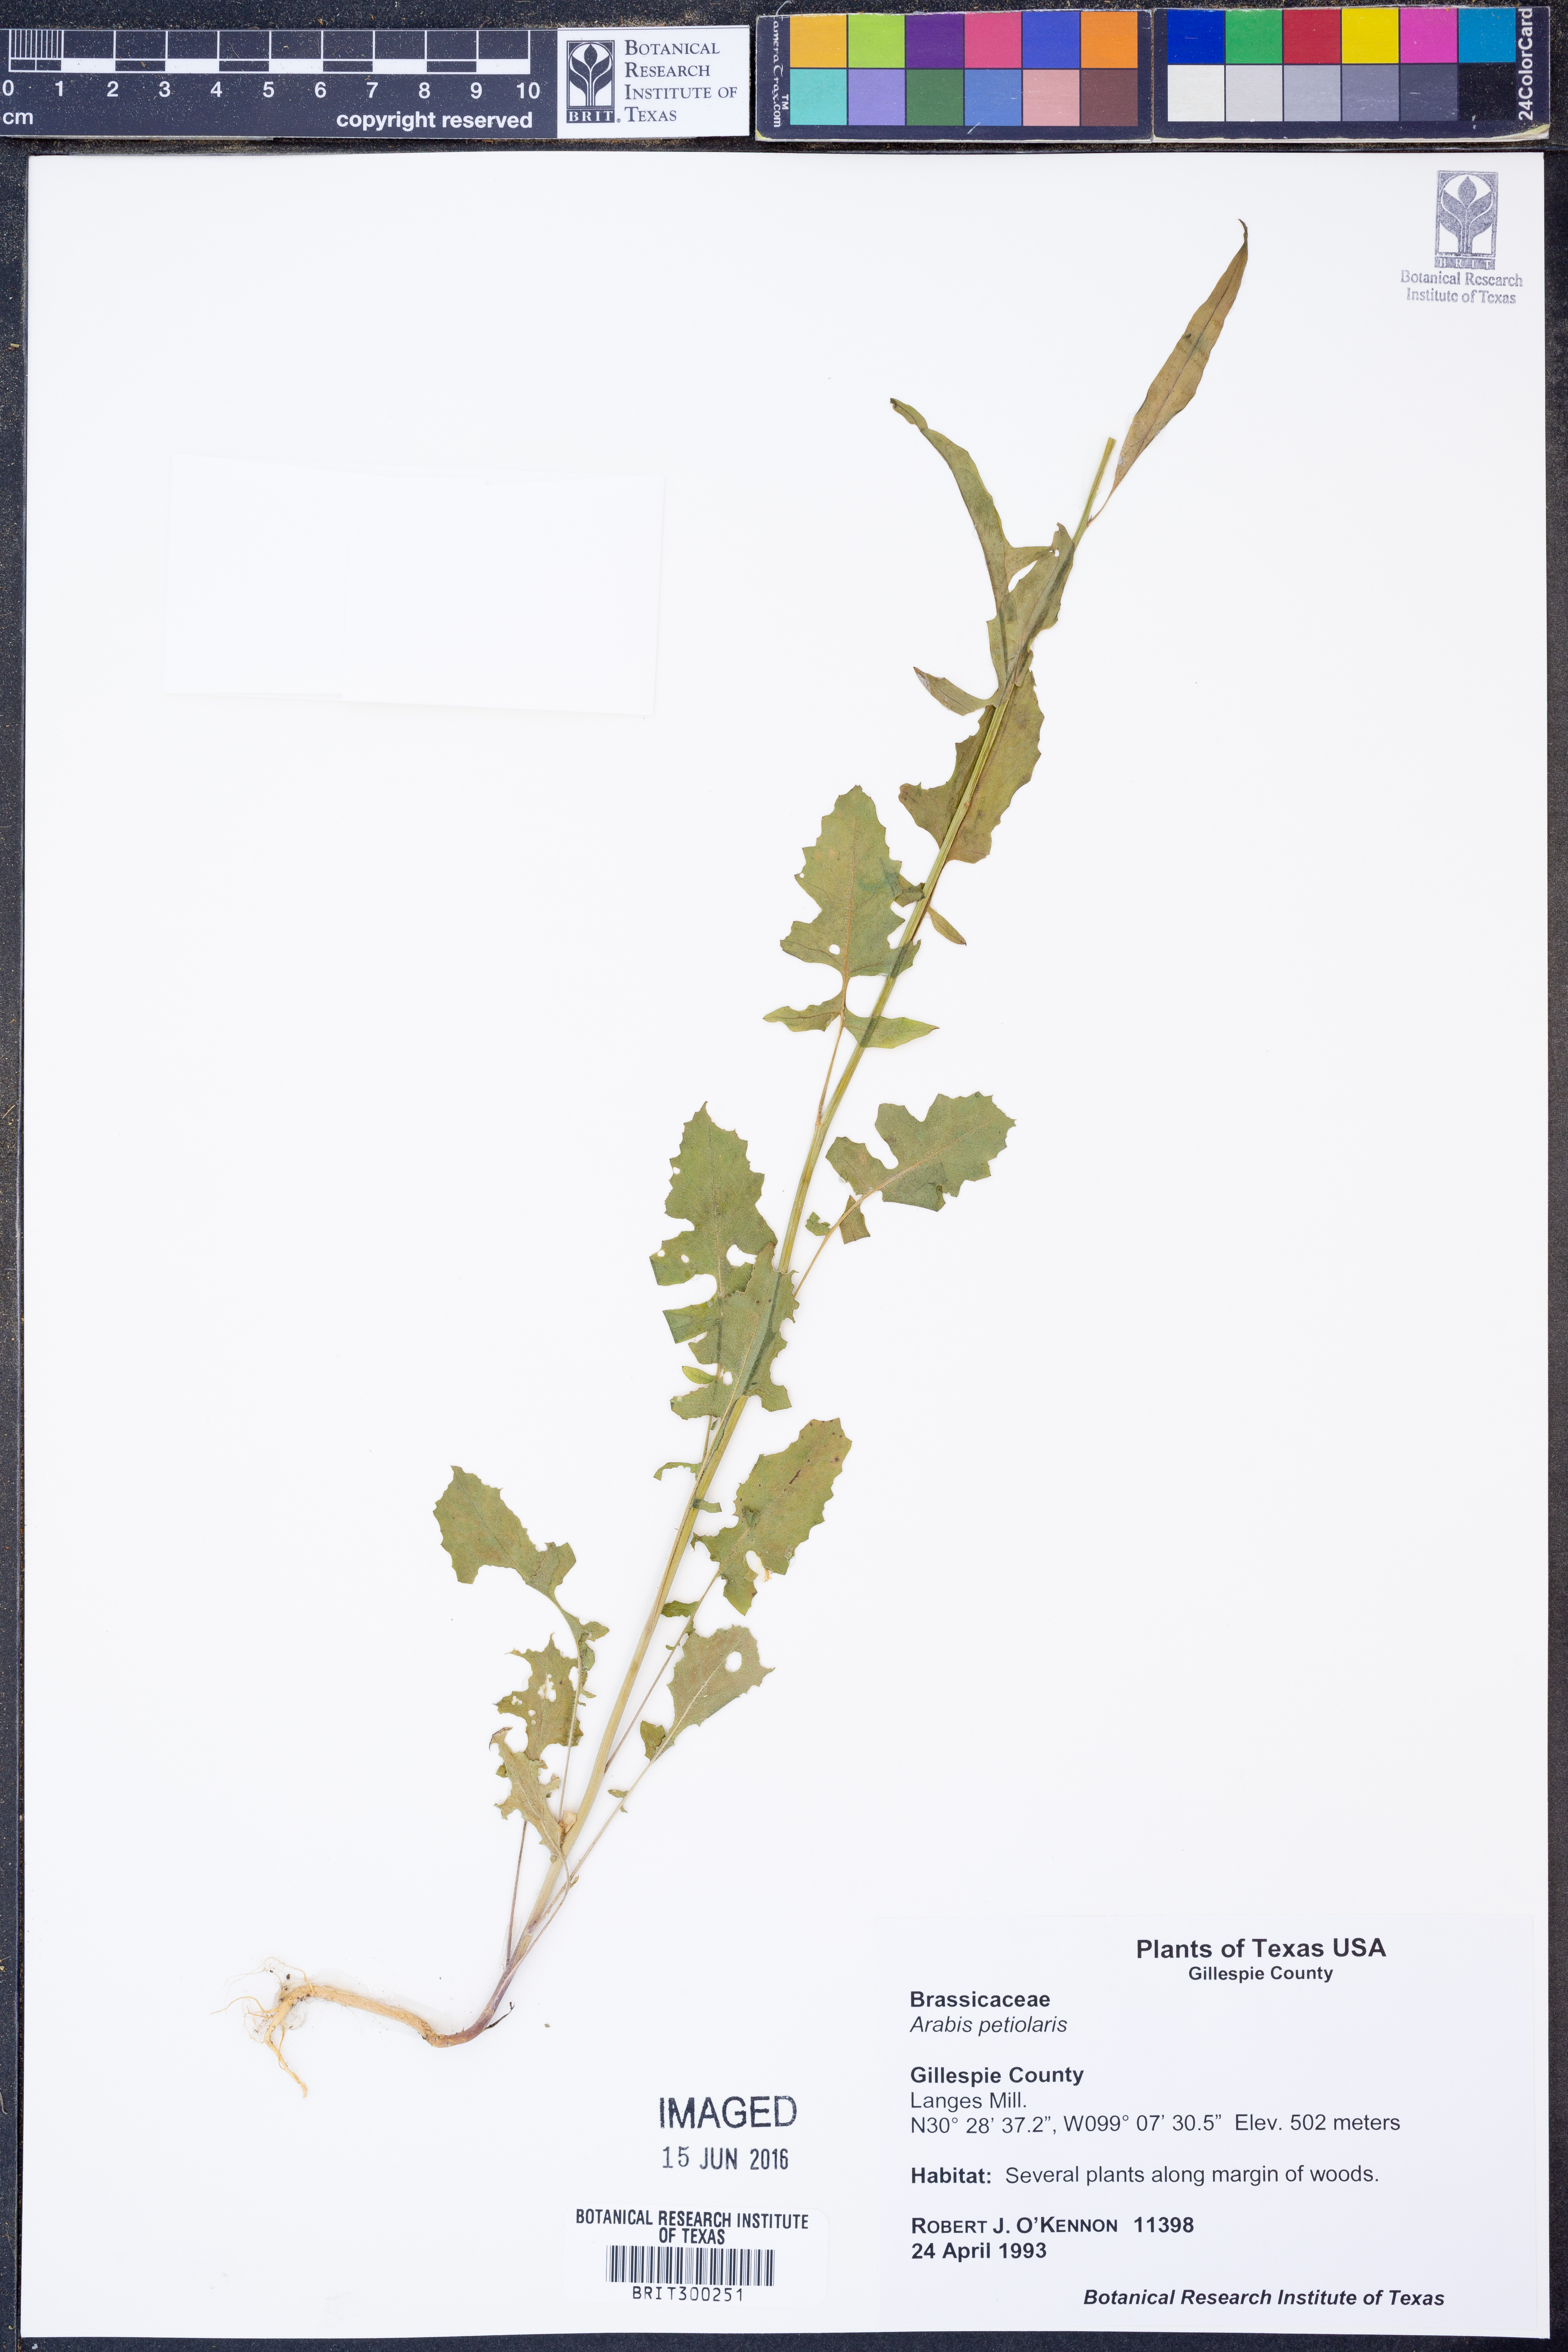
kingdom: Plantae
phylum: Tracheophyta
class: Magnoliopsida
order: Brassicales
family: Brassicaceae
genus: Streptanthus
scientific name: Streptanthus petiolaris
